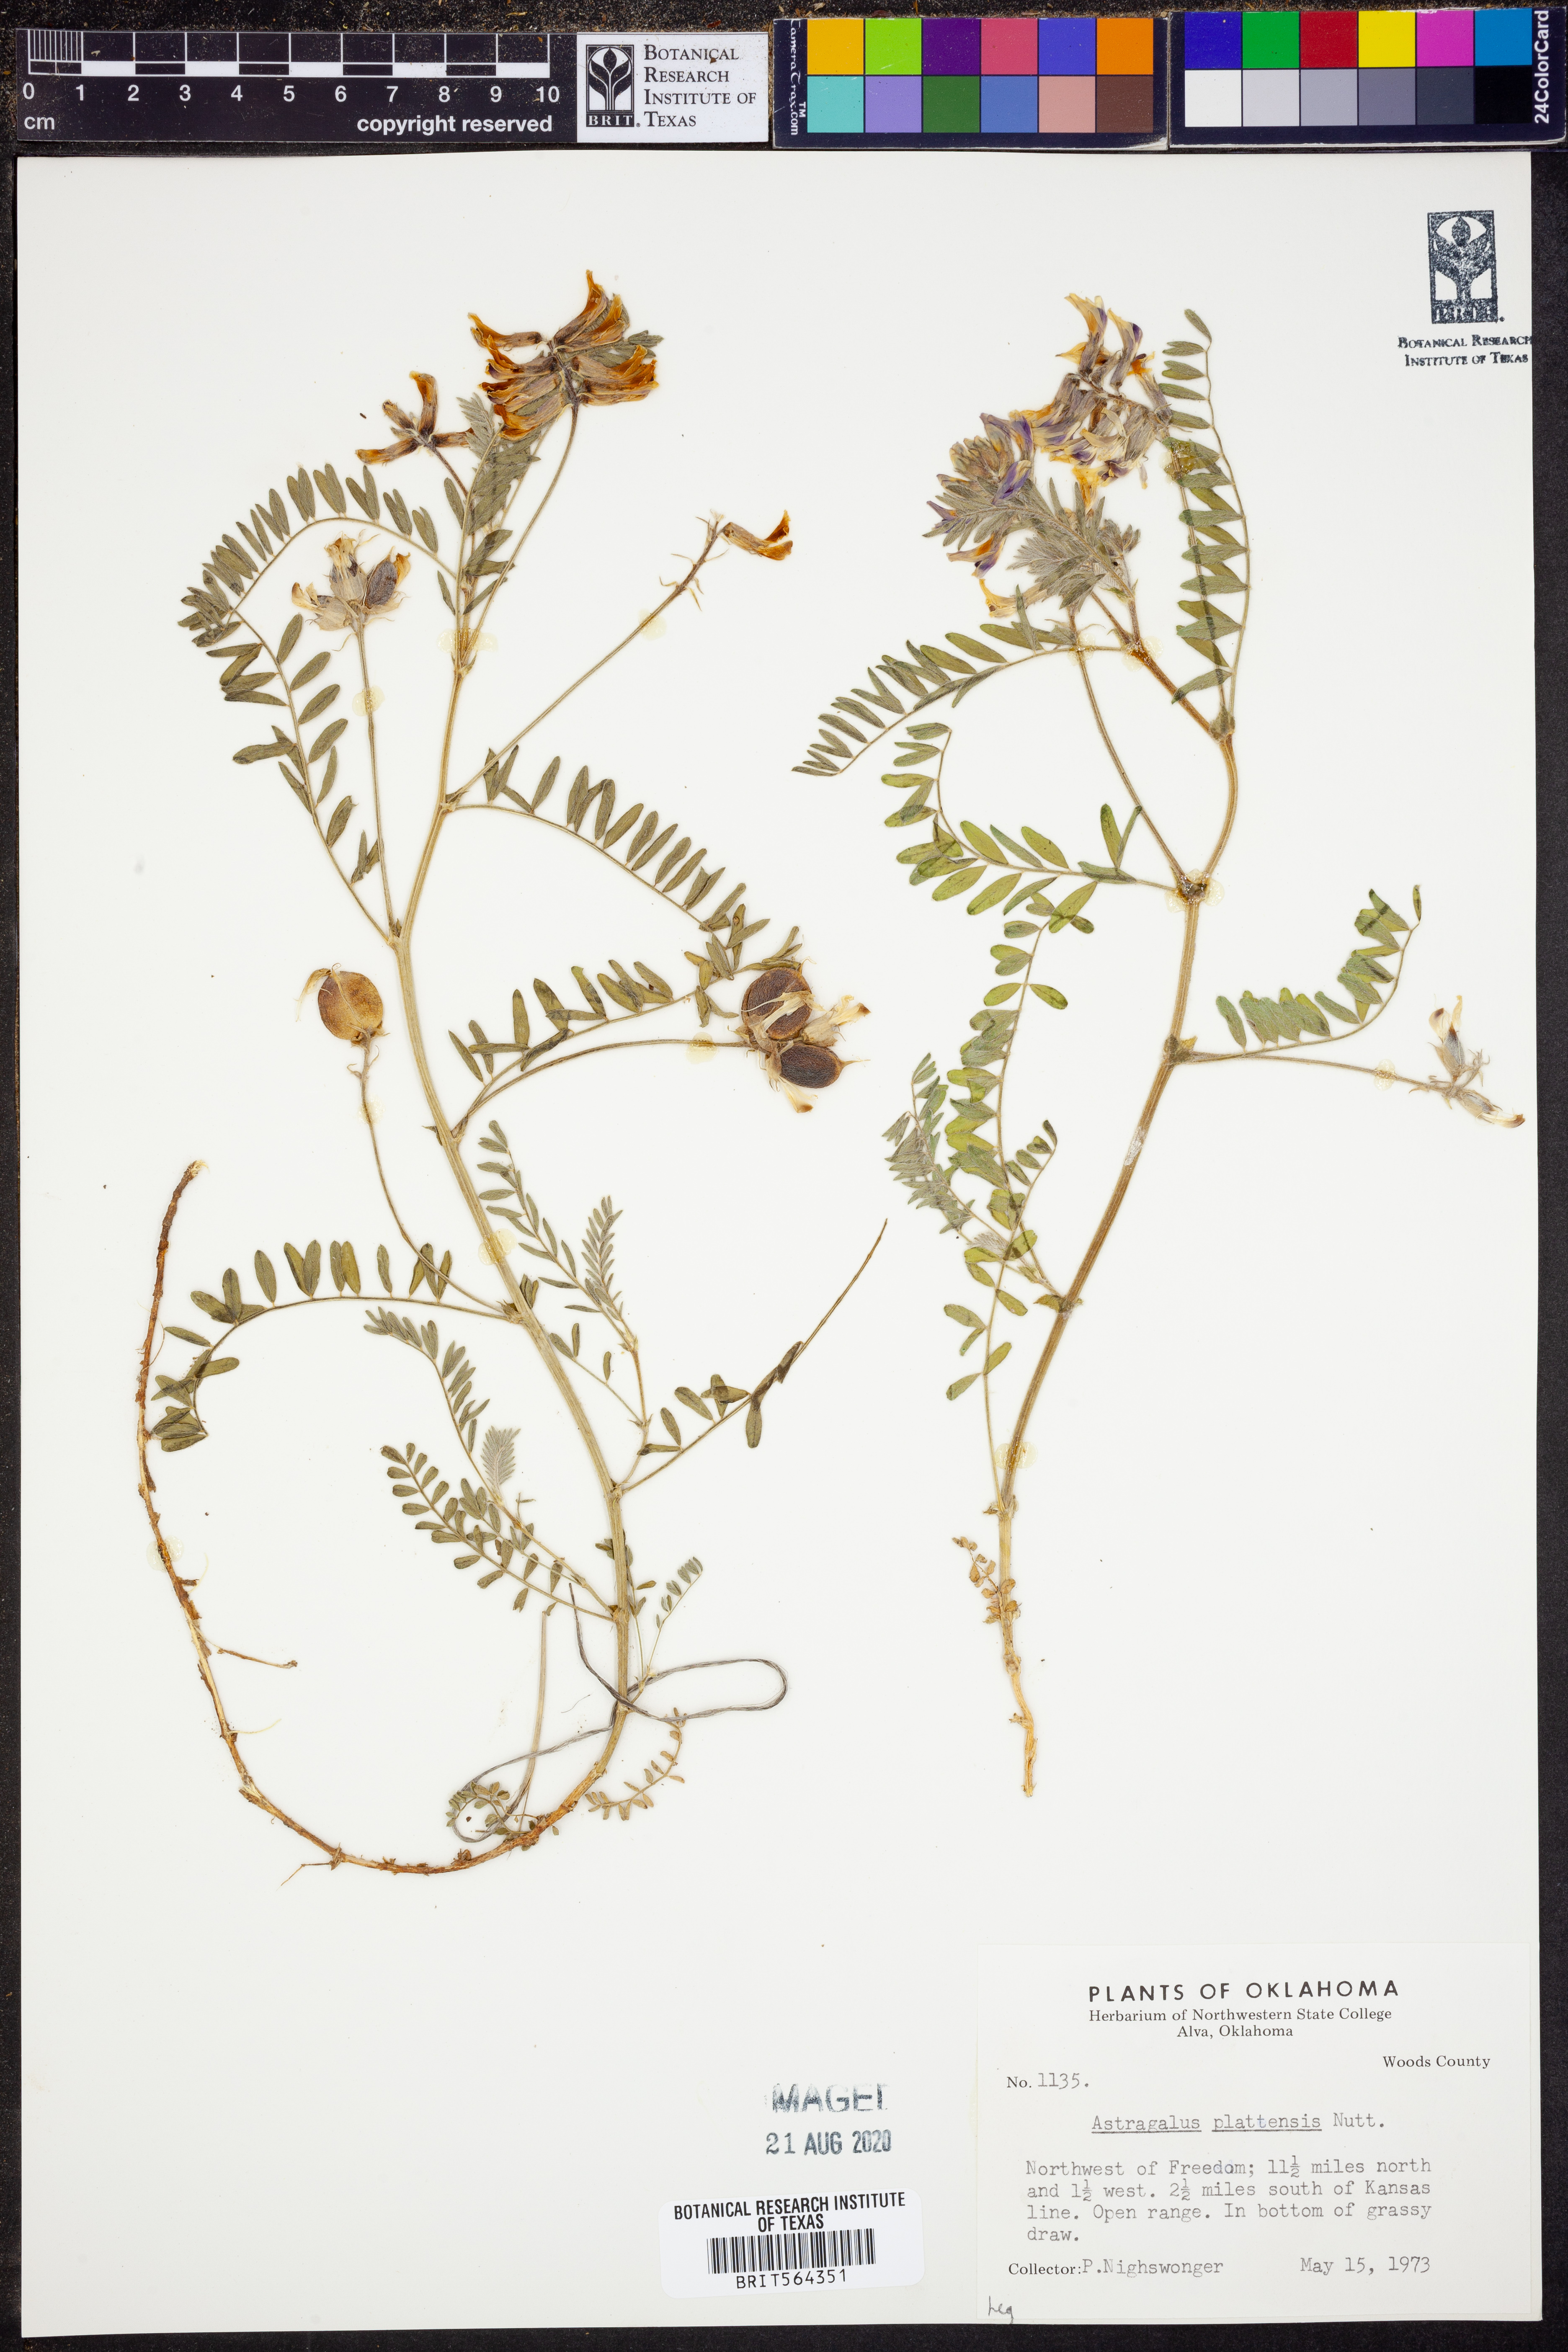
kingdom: Plantae
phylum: Tracheophyta
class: Magnoliopsida
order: Fabales
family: Fabaceae
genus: Astragalus
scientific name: Astragalus plattensis
